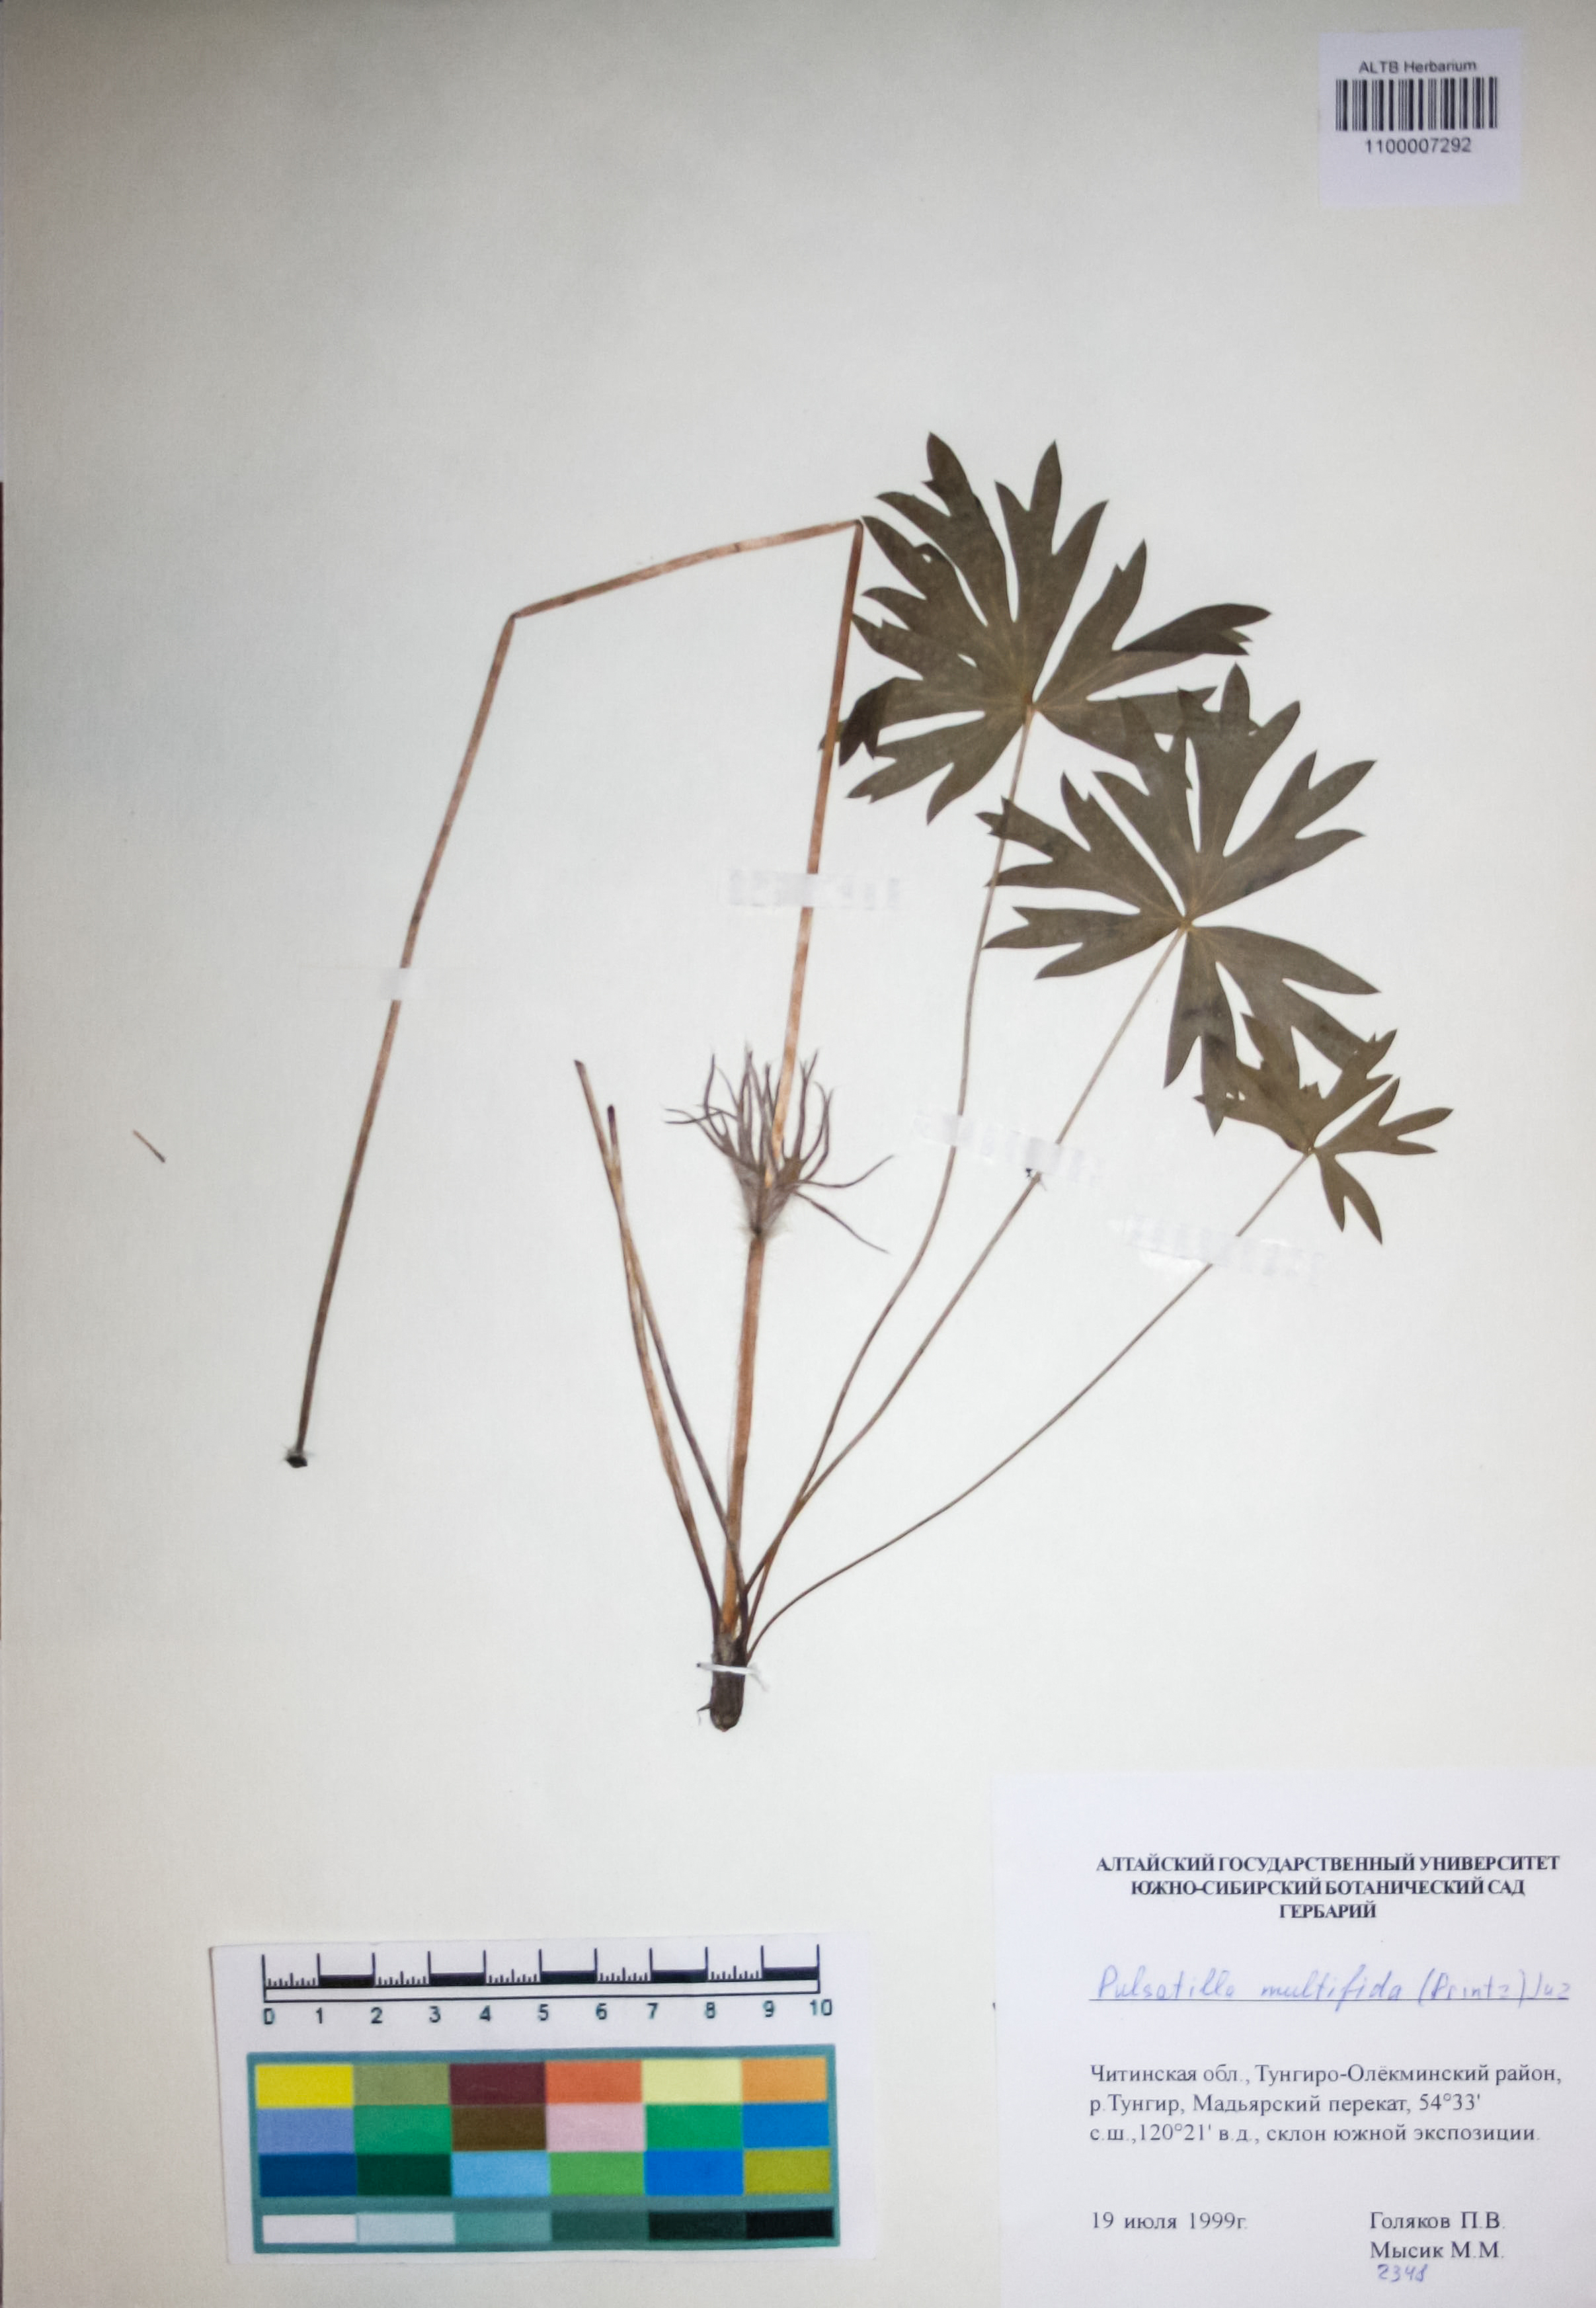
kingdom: Plantae
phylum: Tracheophyta
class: Magnoliopsida
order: Ranunculales
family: Ranunculaceae
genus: Pulsatilla
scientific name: Pulsatilla patens
